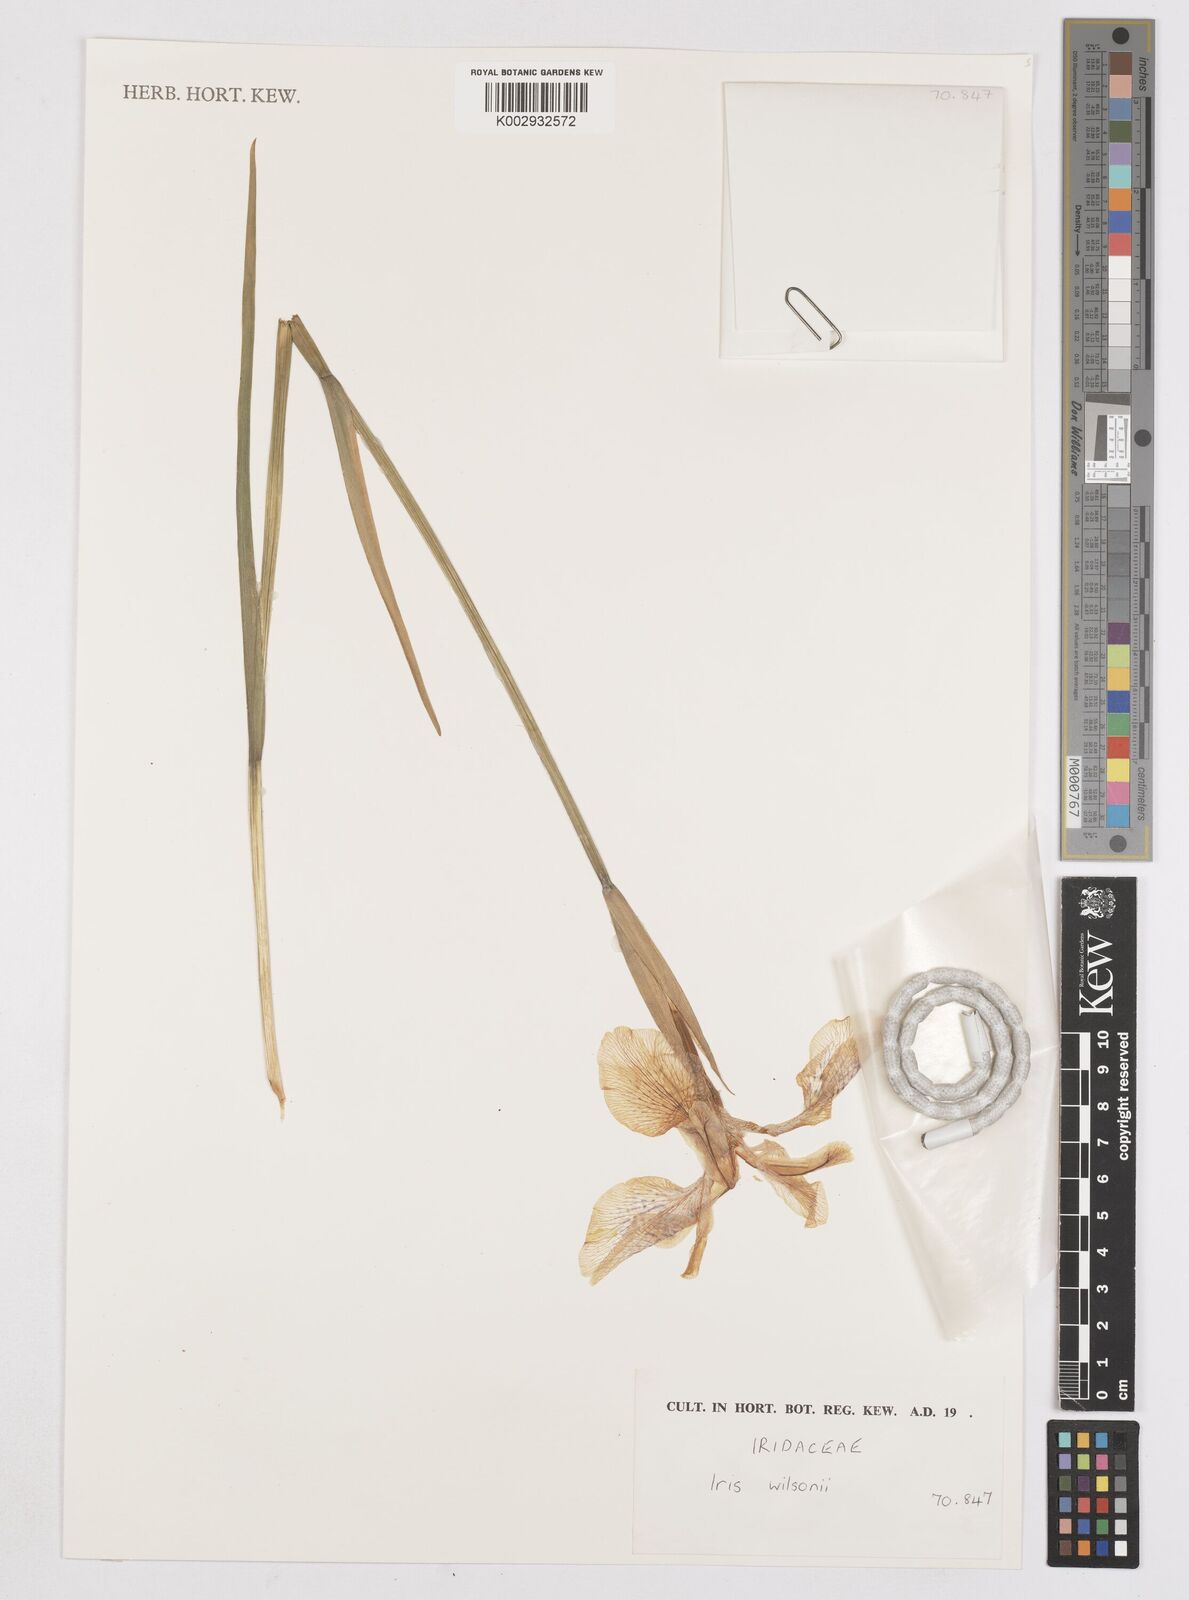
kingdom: Plantae
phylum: Tracheophyta
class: Liliopsida
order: Asparagales
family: Iridaceae
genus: Iris
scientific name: Iris wilsonii
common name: Yellow-flower iris
